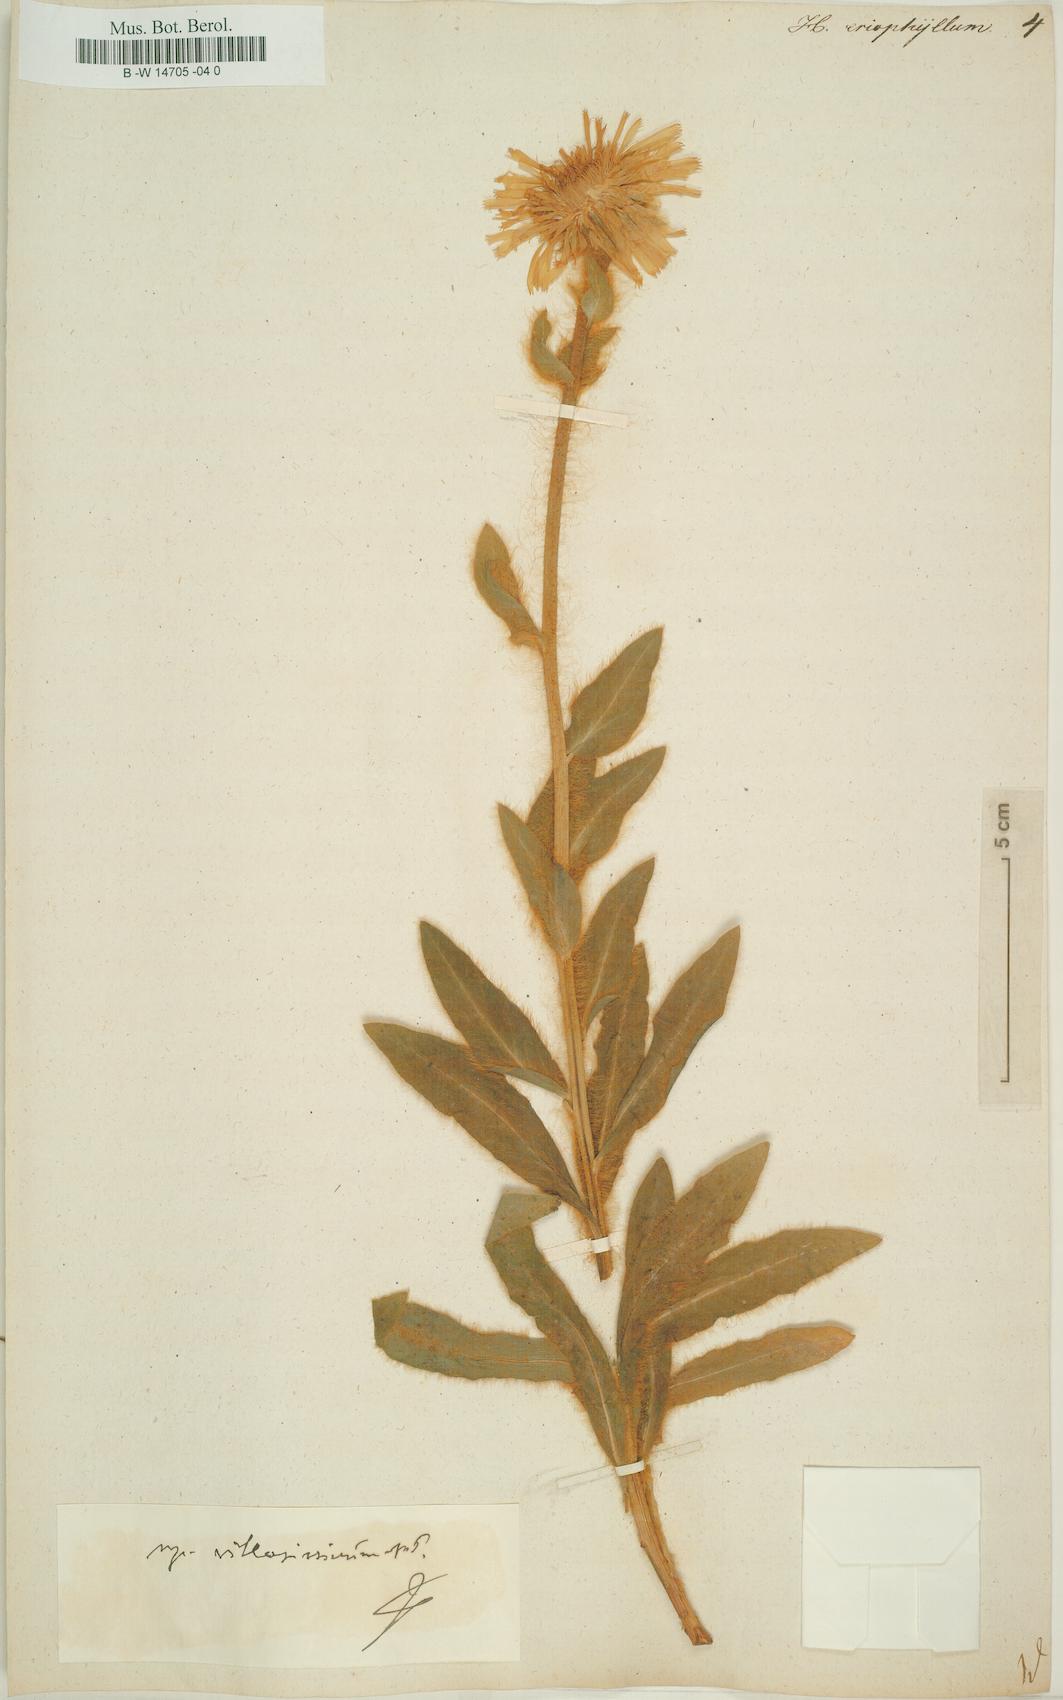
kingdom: Plantae
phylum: Tracheophyta
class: Magnoliopsida
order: Asterales
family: Asteraceae
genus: Hieracium
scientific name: Hieracium villosum
